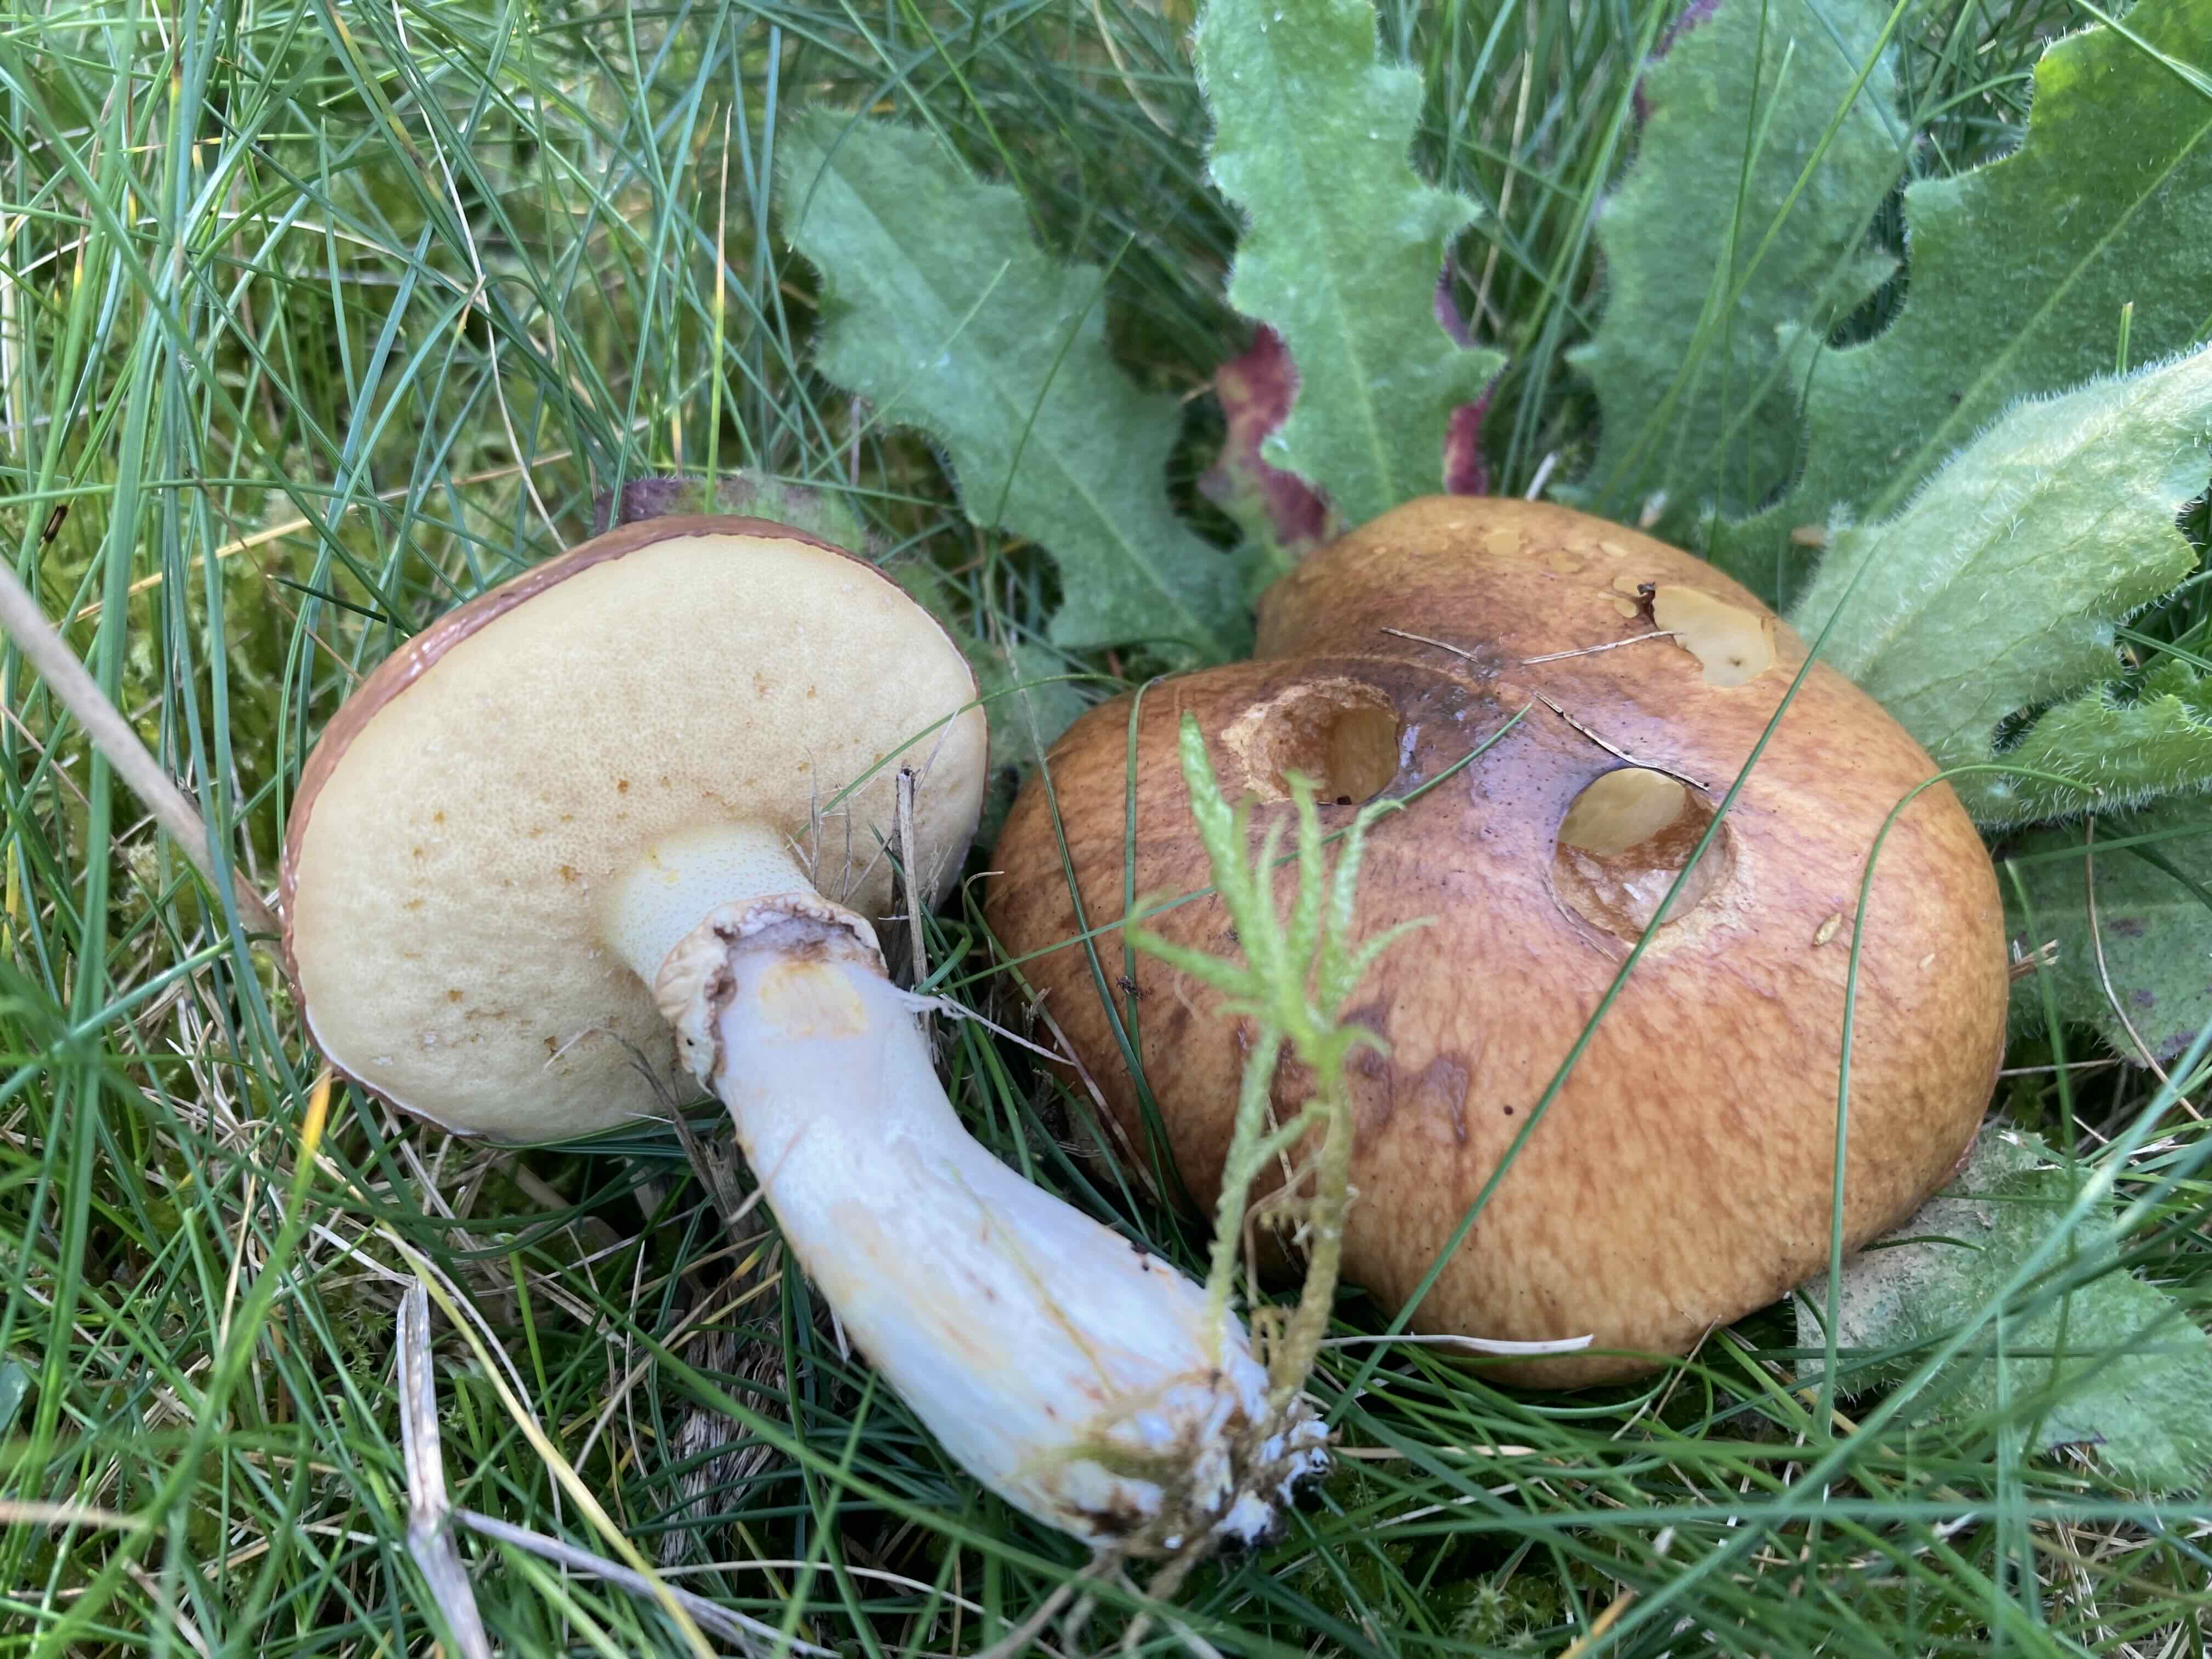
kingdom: Fungi
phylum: Basidiomycota
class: Agaricomycetes
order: Boletales
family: Suillaceae
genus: Suillus
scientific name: Suillus luteus
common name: brungul slimrørhat
